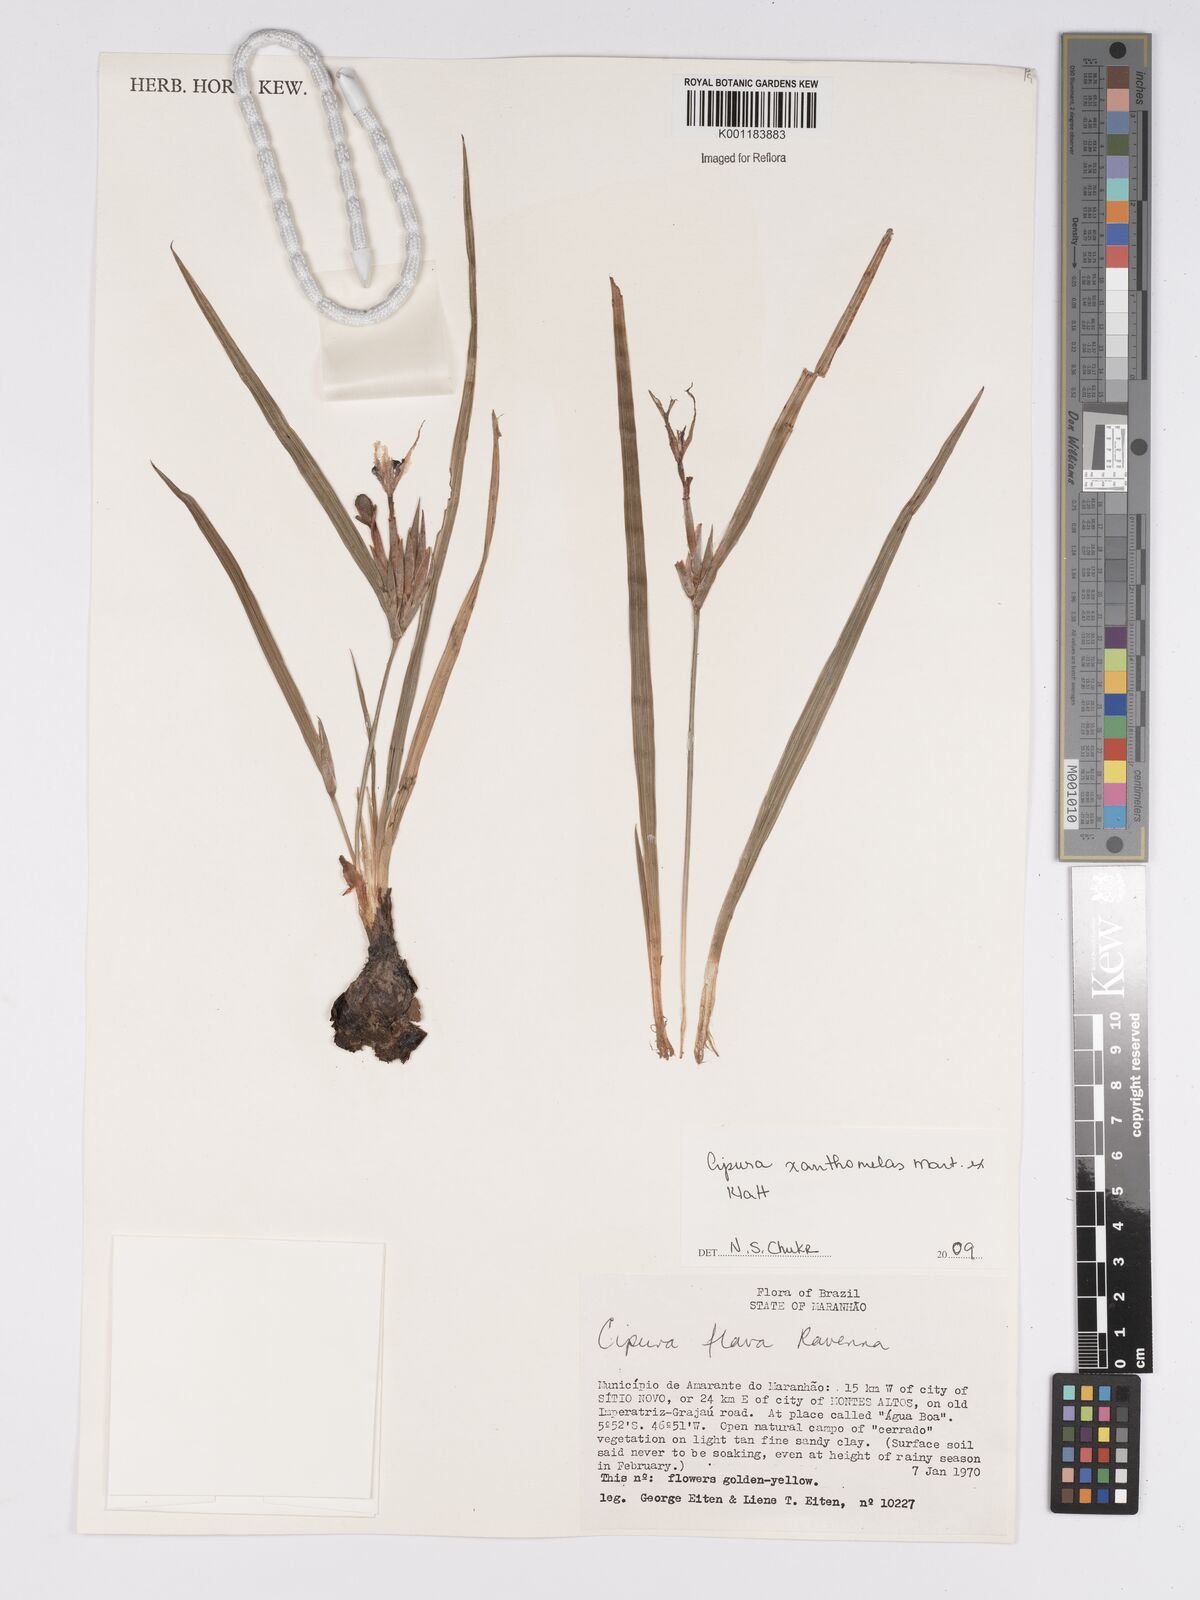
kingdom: Plantae
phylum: Tracheophyta
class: Liliopsida
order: Asparagales
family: Iridaceae
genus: Cipura
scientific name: Cipura xanthomelas
